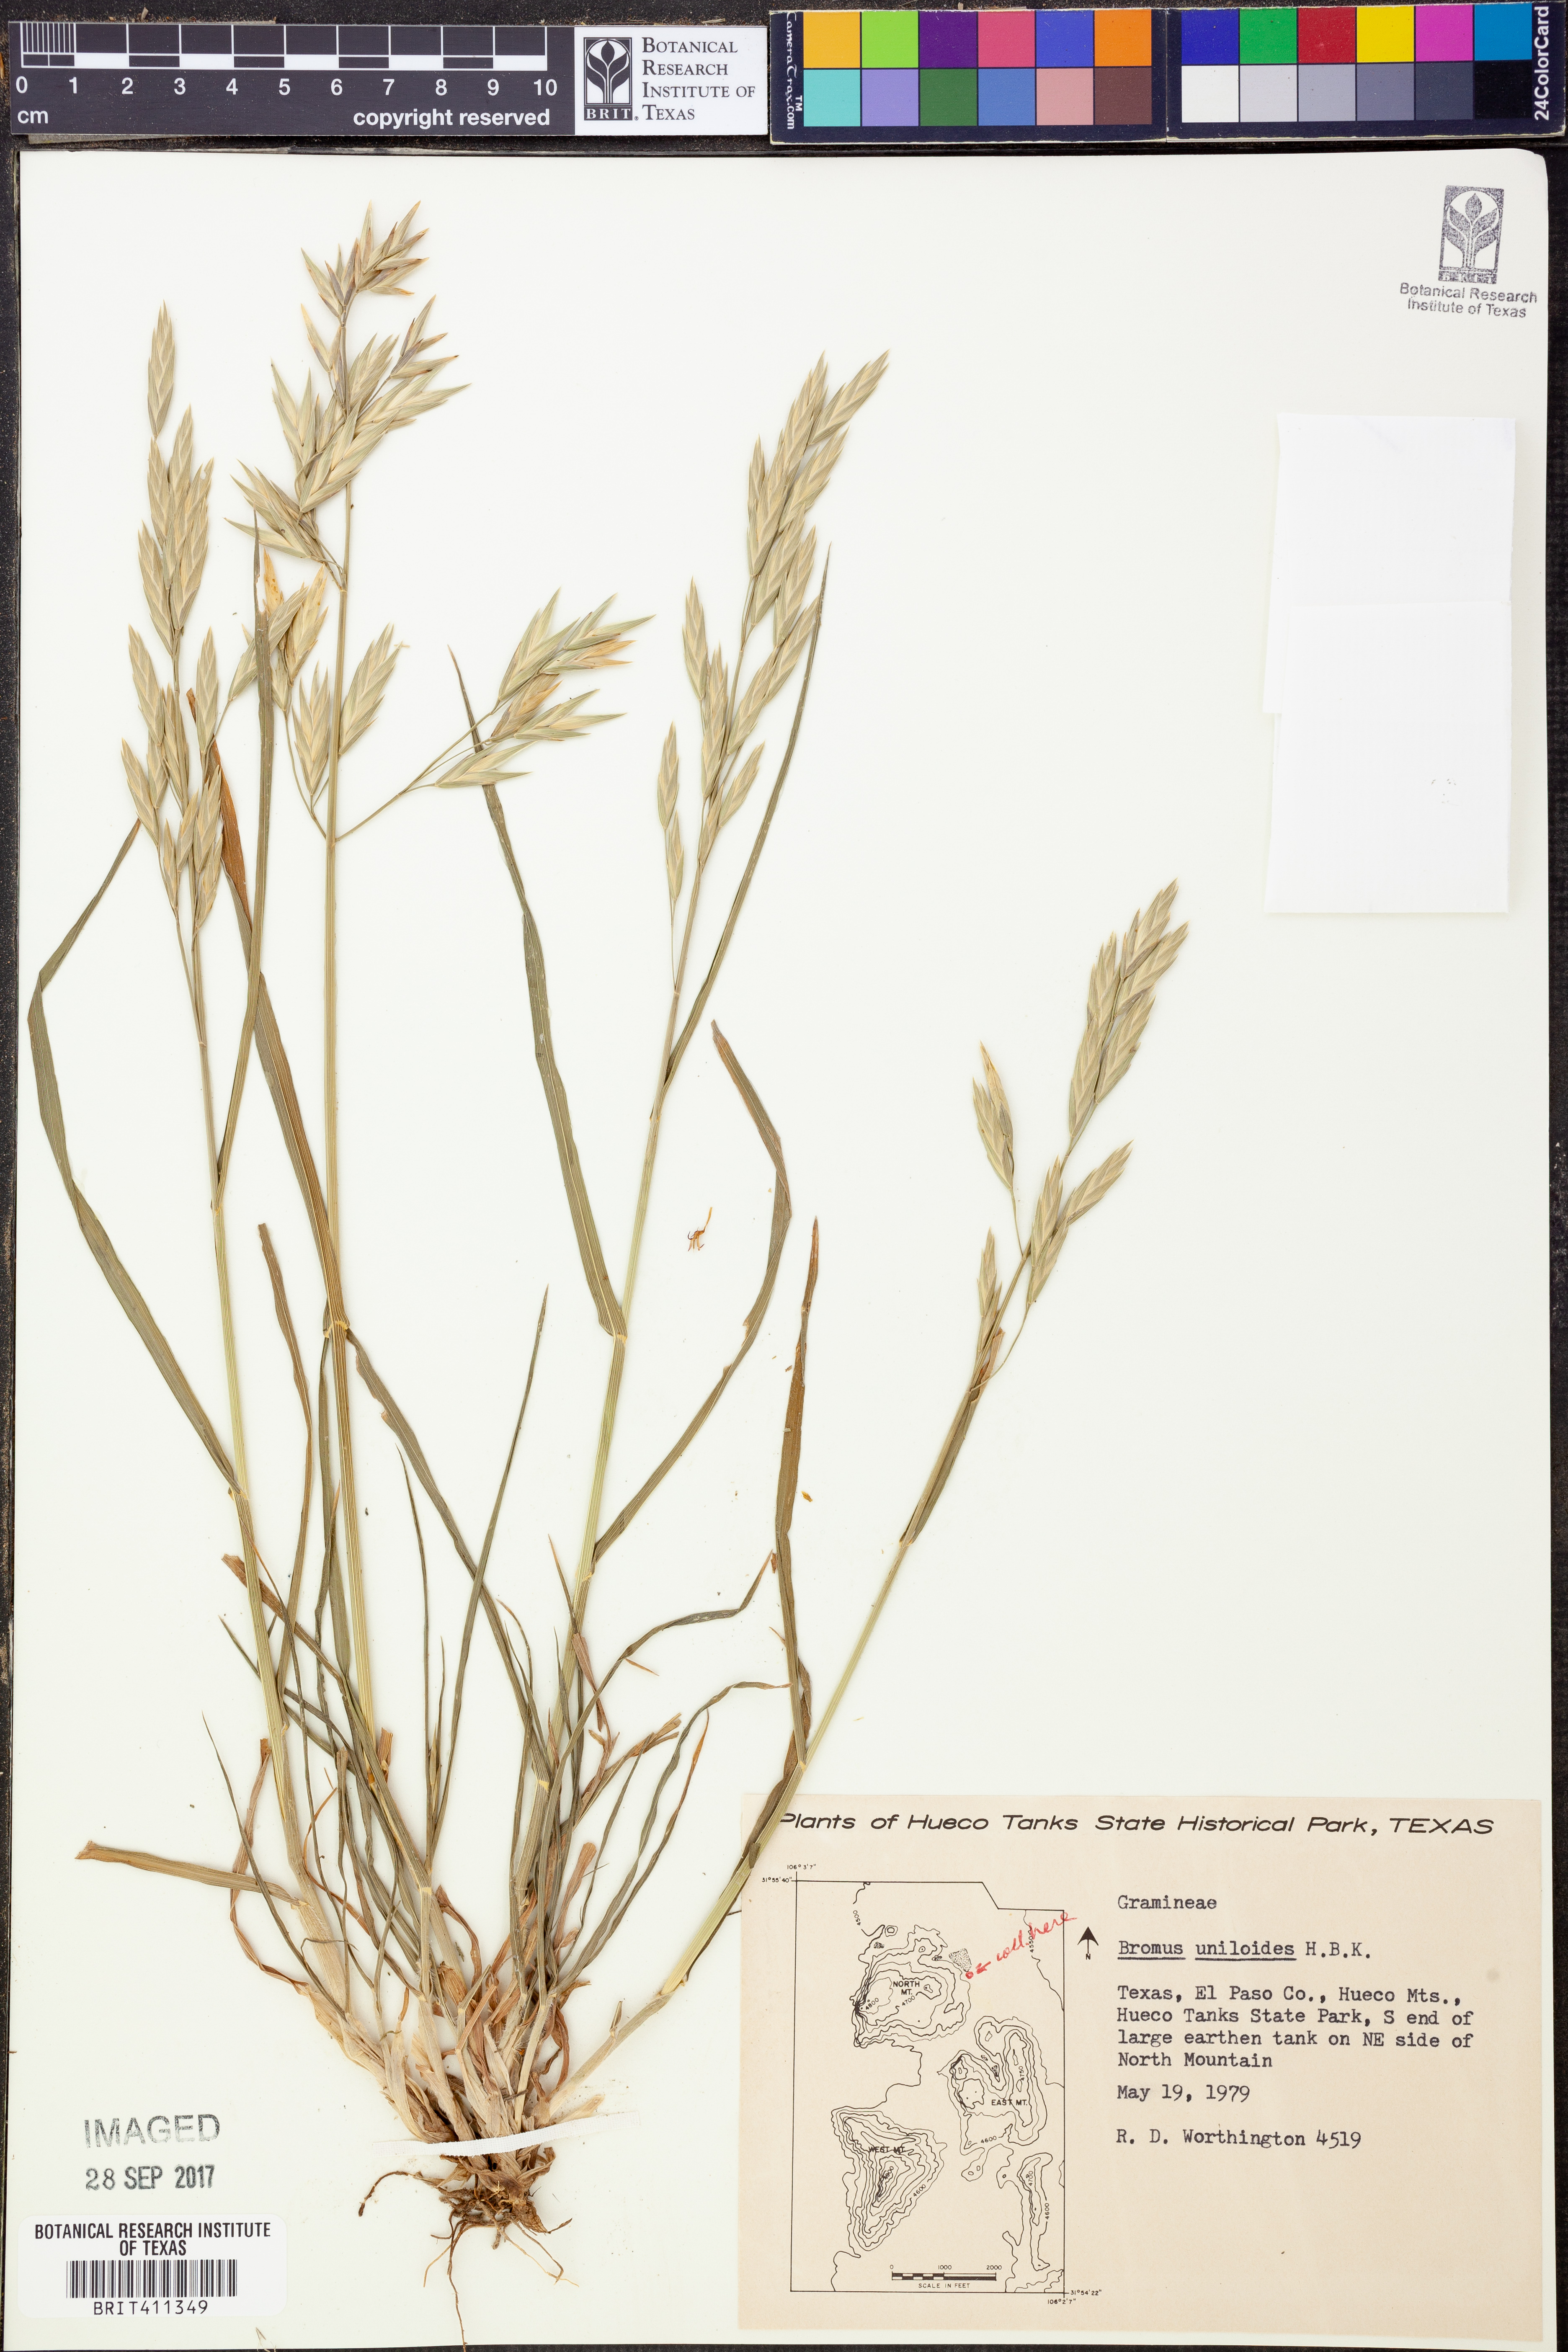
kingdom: Plantae
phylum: Tracheophyta
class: Liliopsida
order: Poales
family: Poaceae
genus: Bromus
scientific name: Bromus catharticus
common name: Rescuegrass
